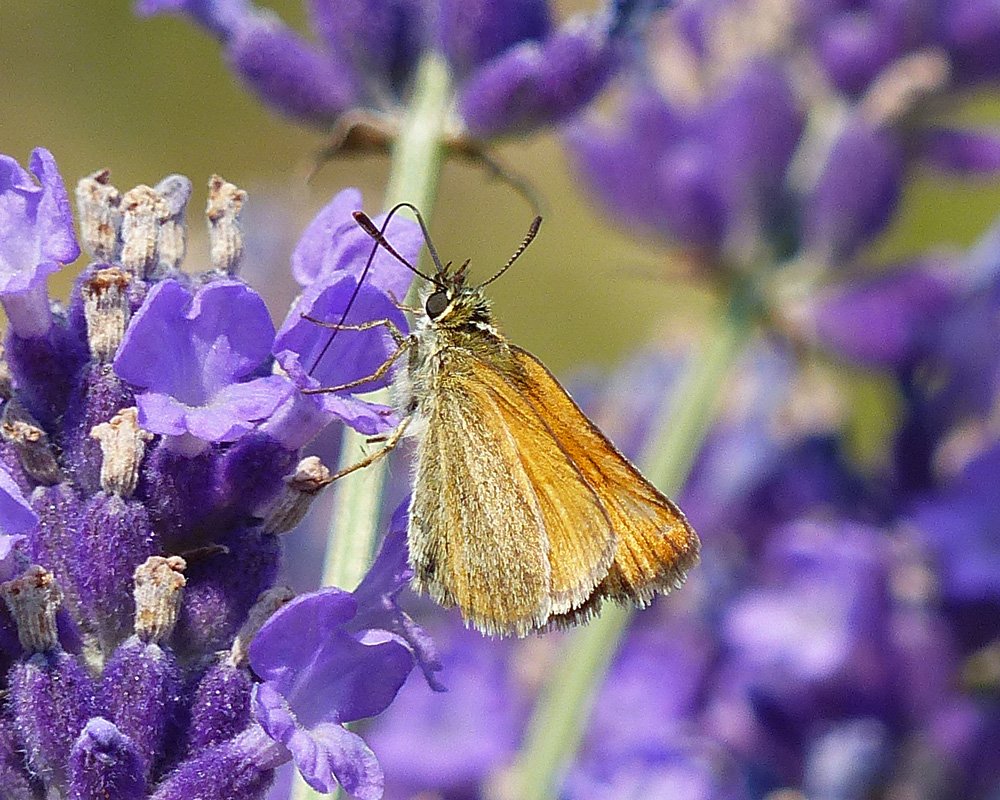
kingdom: Animalia
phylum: Arthropoda
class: Insecta
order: Lepidoptera
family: Hesperiidae
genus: Thymelicus
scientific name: Thymelicus lineola
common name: European Skipper
